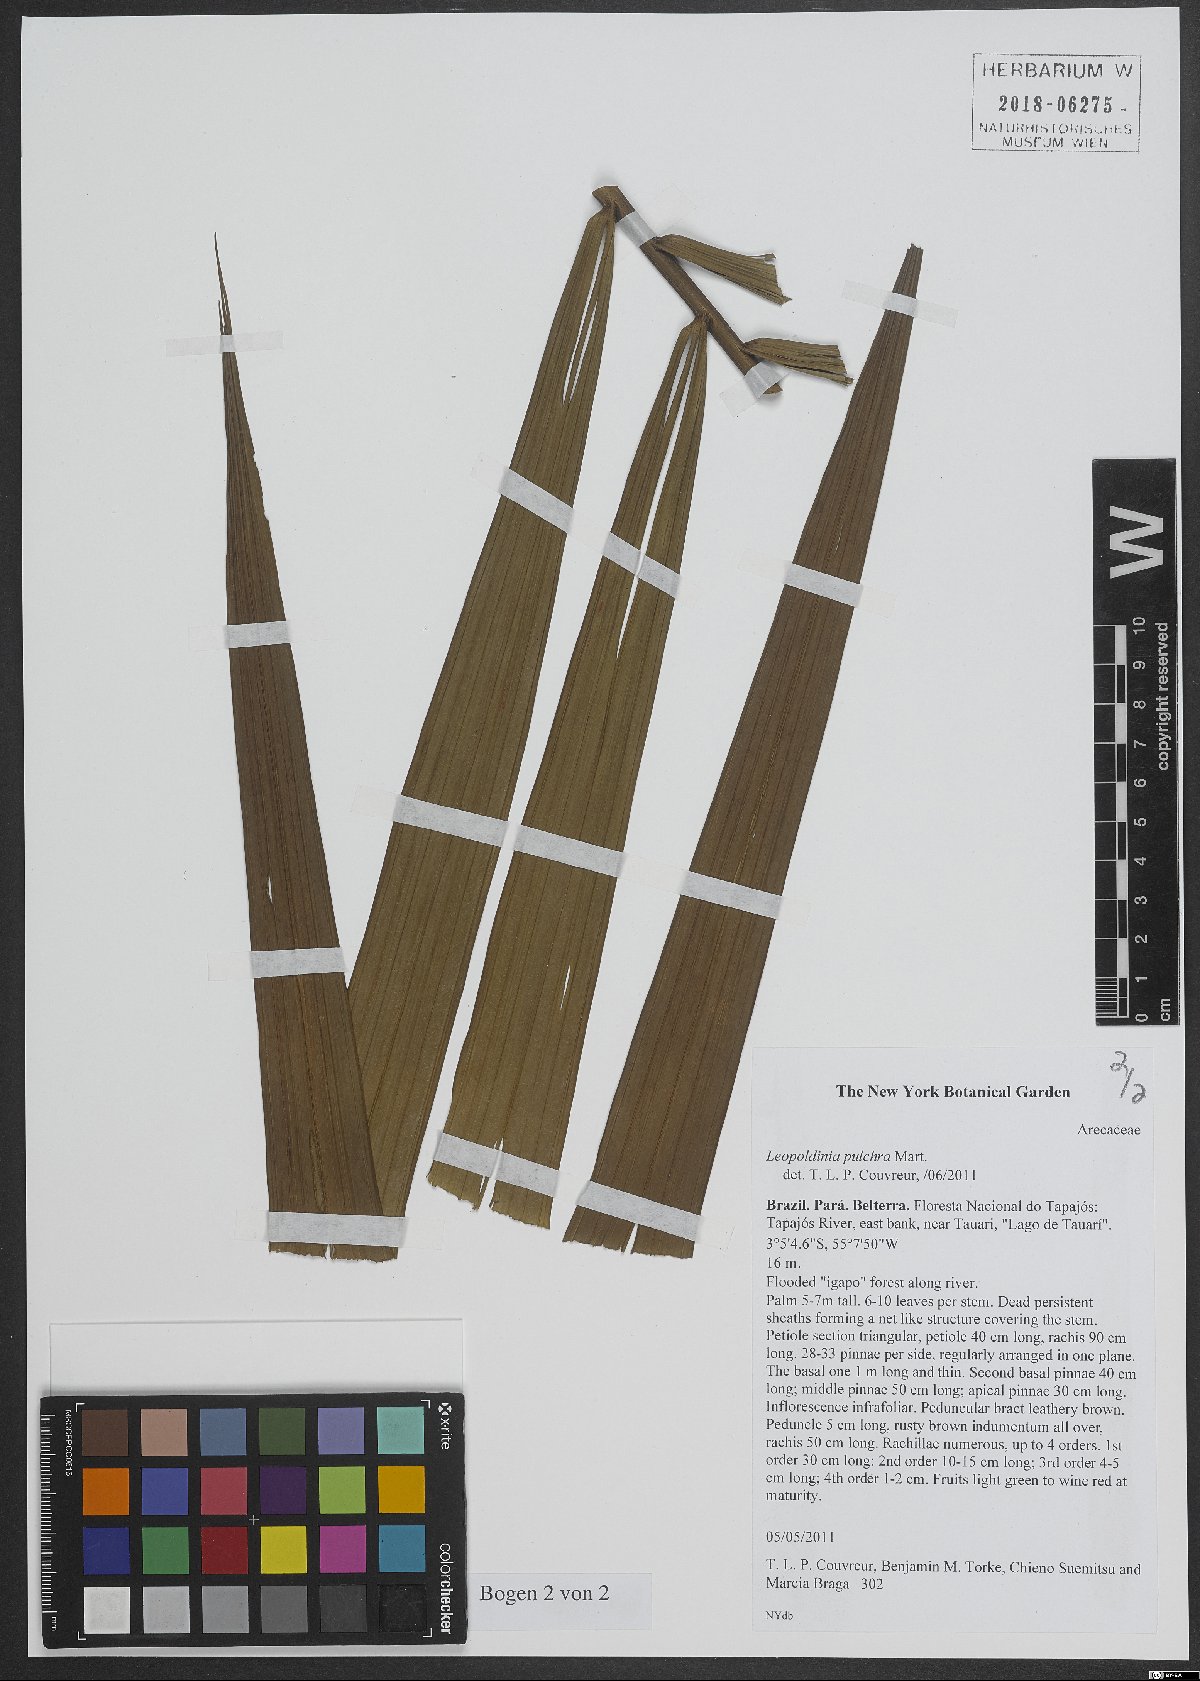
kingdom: Plantae
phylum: Tracheophyta
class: Liliopsida
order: Arecales
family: Arecaceae
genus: Leopoldinia
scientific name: Leopoldinia pulchra
